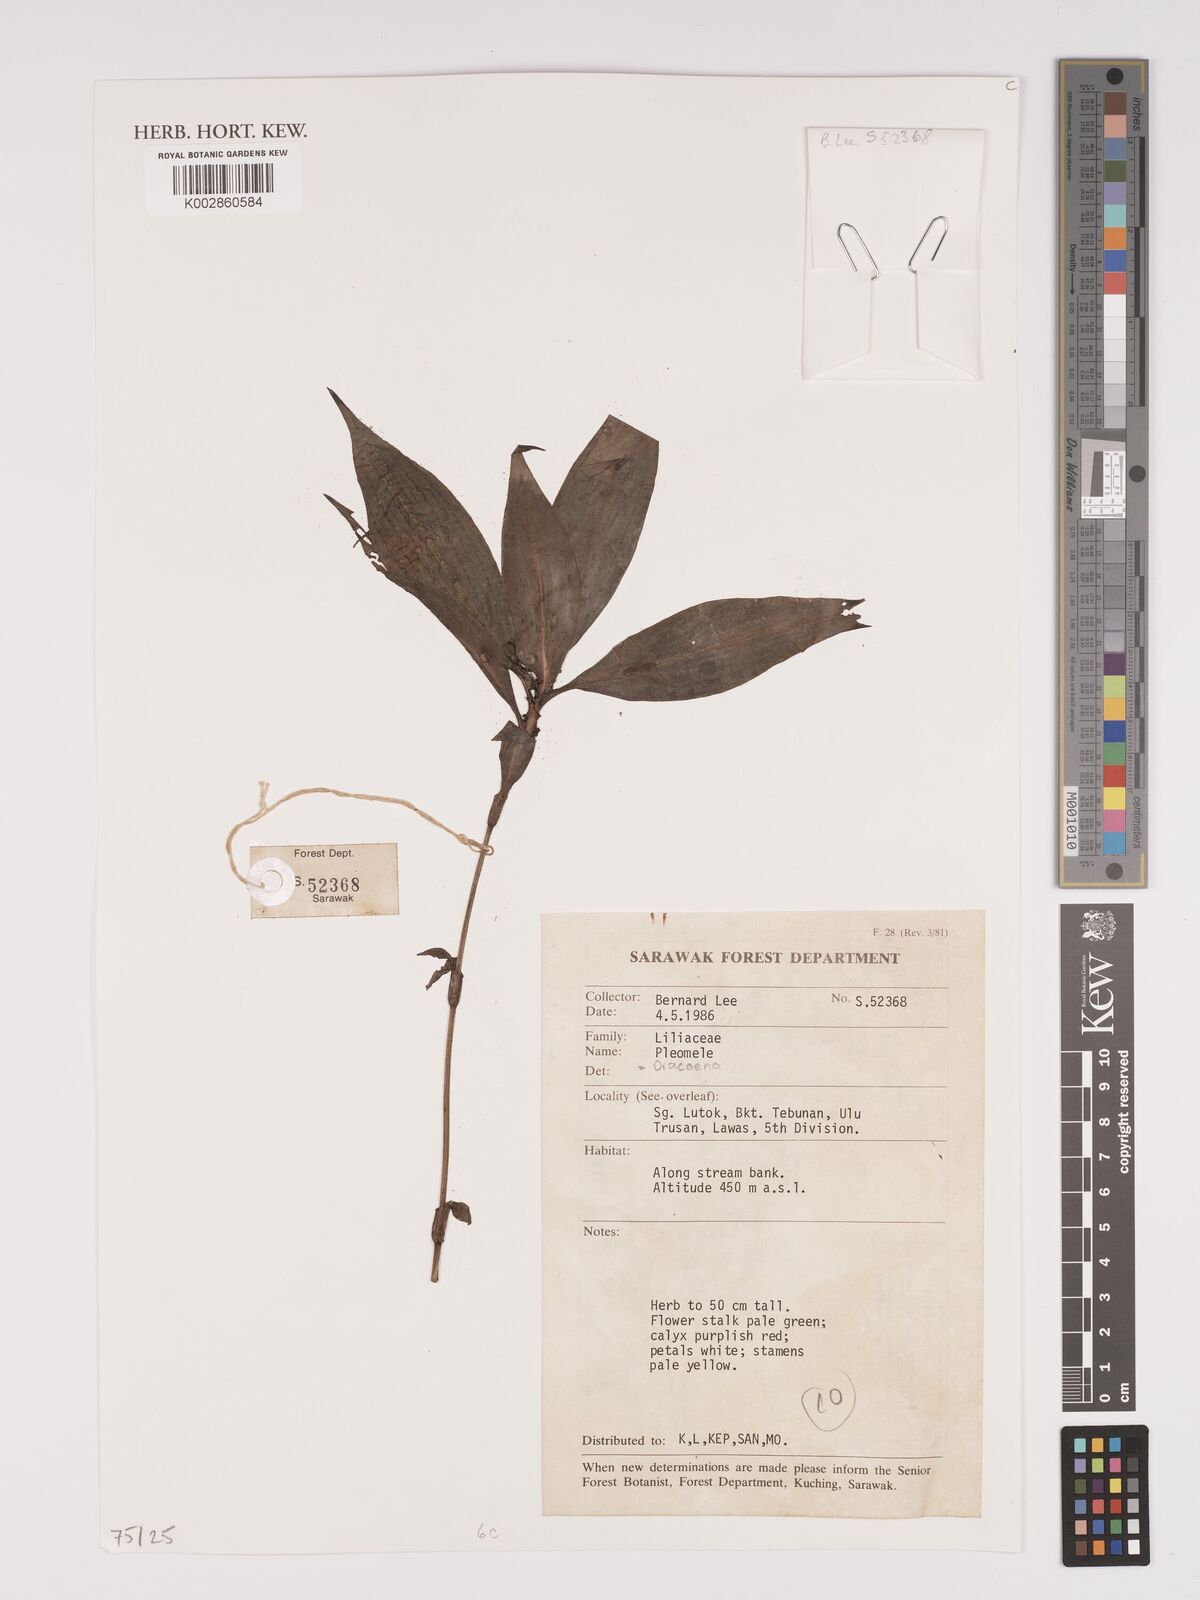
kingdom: Plantae
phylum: Tracheophyta
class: Liliopsida
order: Asparagales
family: Asparagaceae
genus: Dracaena
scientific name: Dracaena
